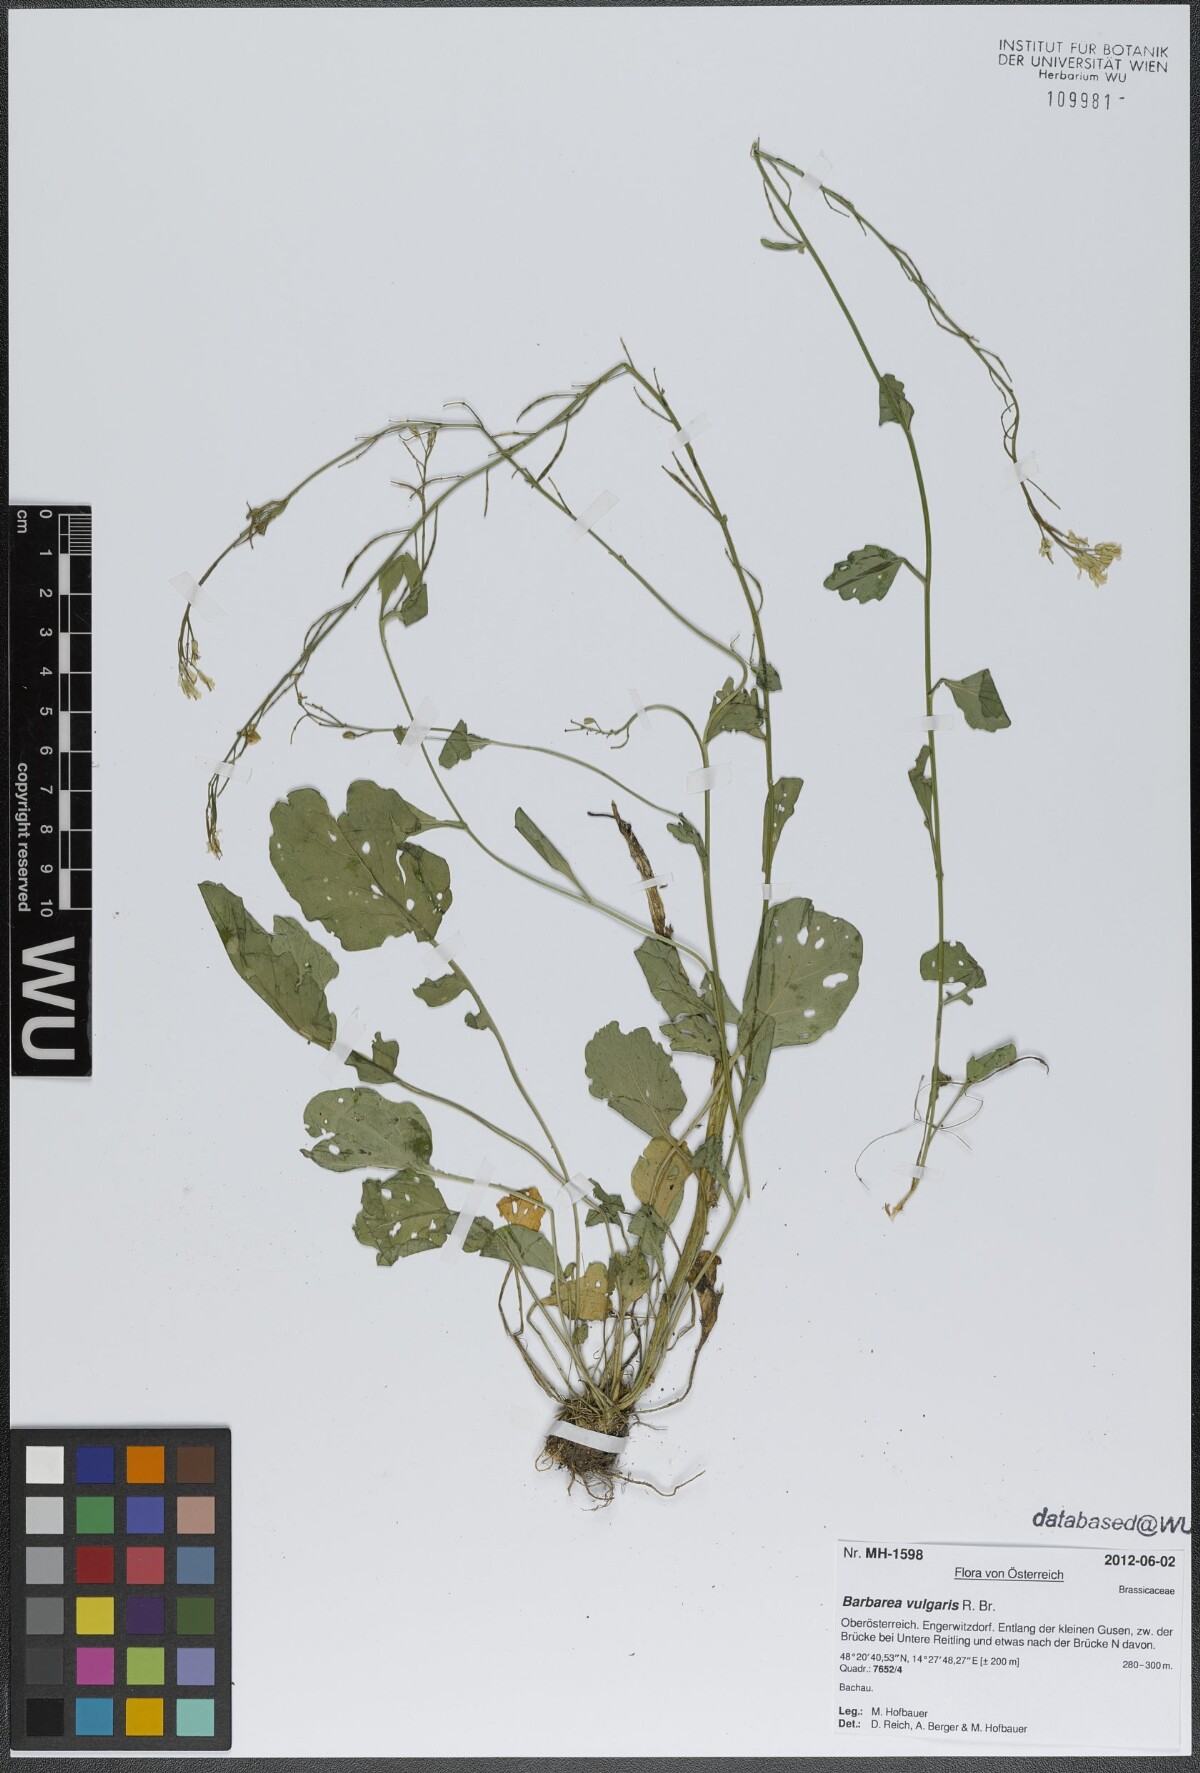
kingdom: Plantae
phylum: Tracheophyta
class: Magnoliopsida
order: Brassicales
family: Brassicaceae
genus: Barbarea
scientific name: Barbarea vulgaris
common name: Cressy-greens
